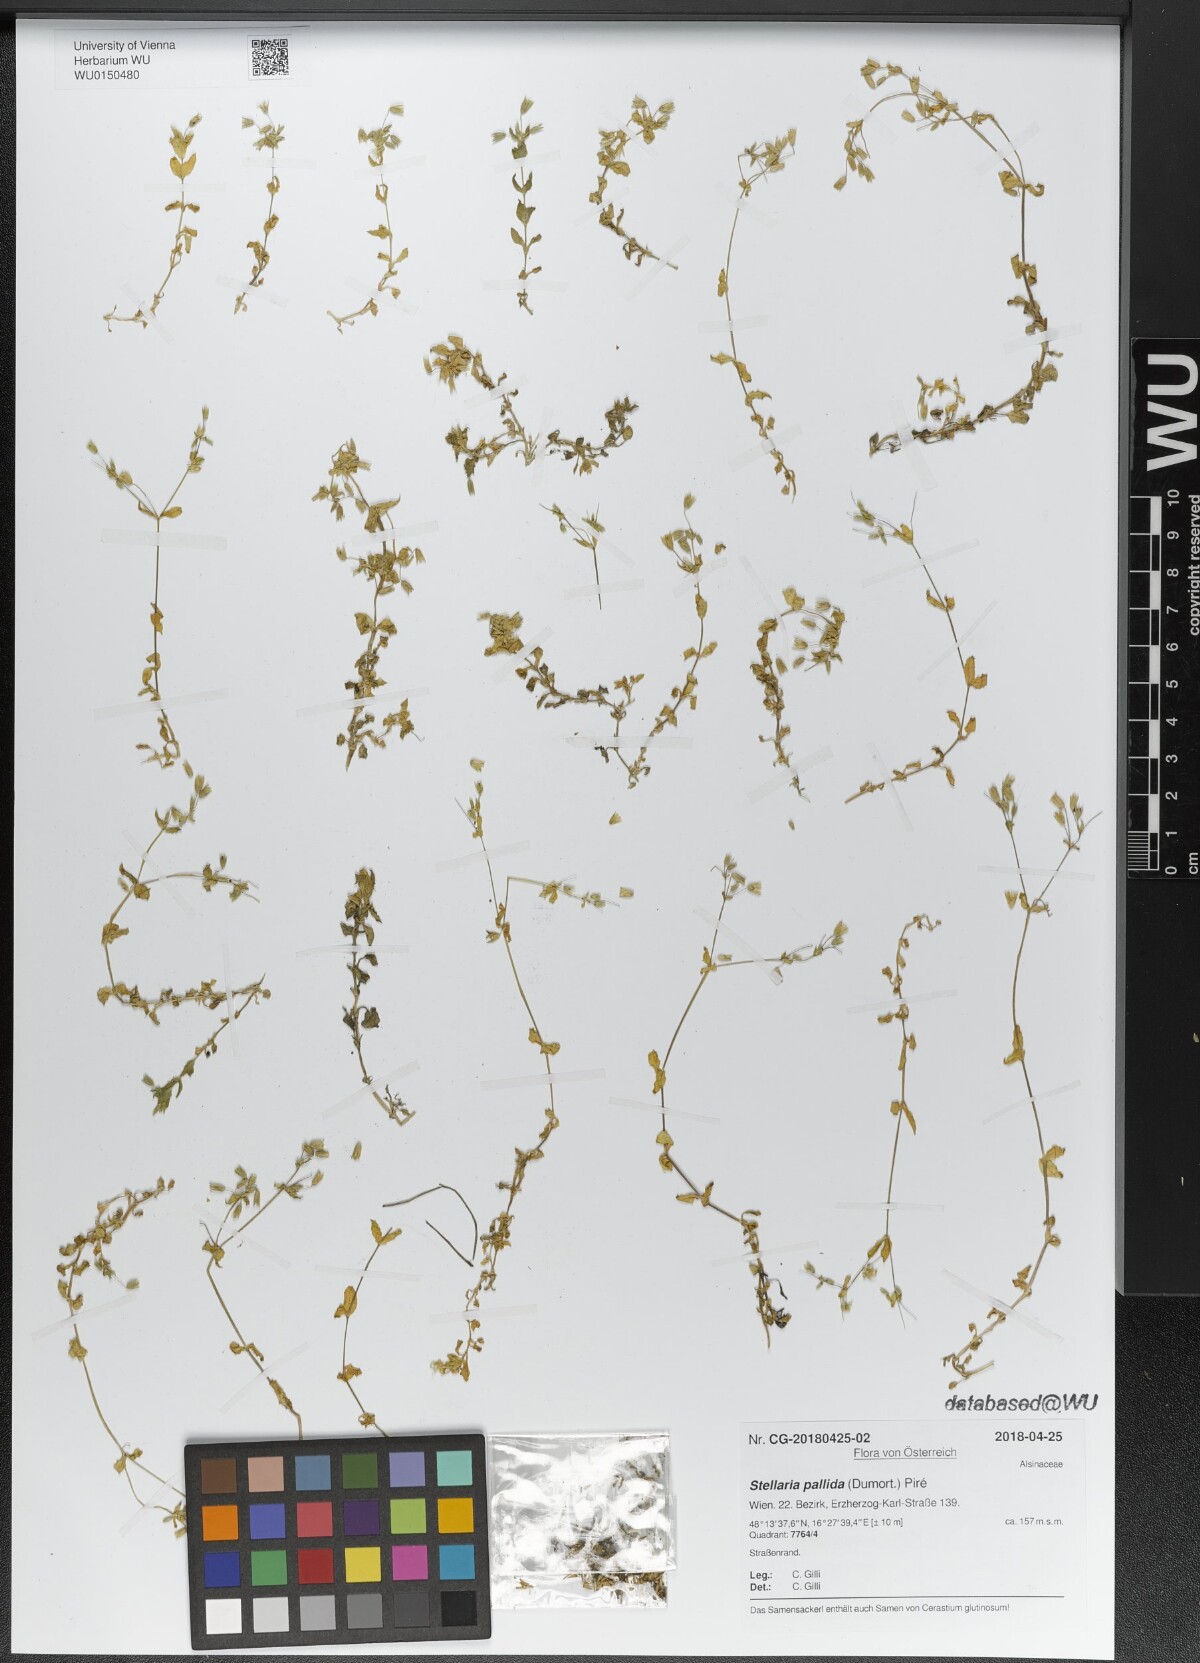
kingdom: Plantae
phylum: Tracheophyta
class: Magnoliopsida
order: Caryophyllales
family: Caryophyllaceae
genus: Stellaria
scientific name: Stellaria apetala
